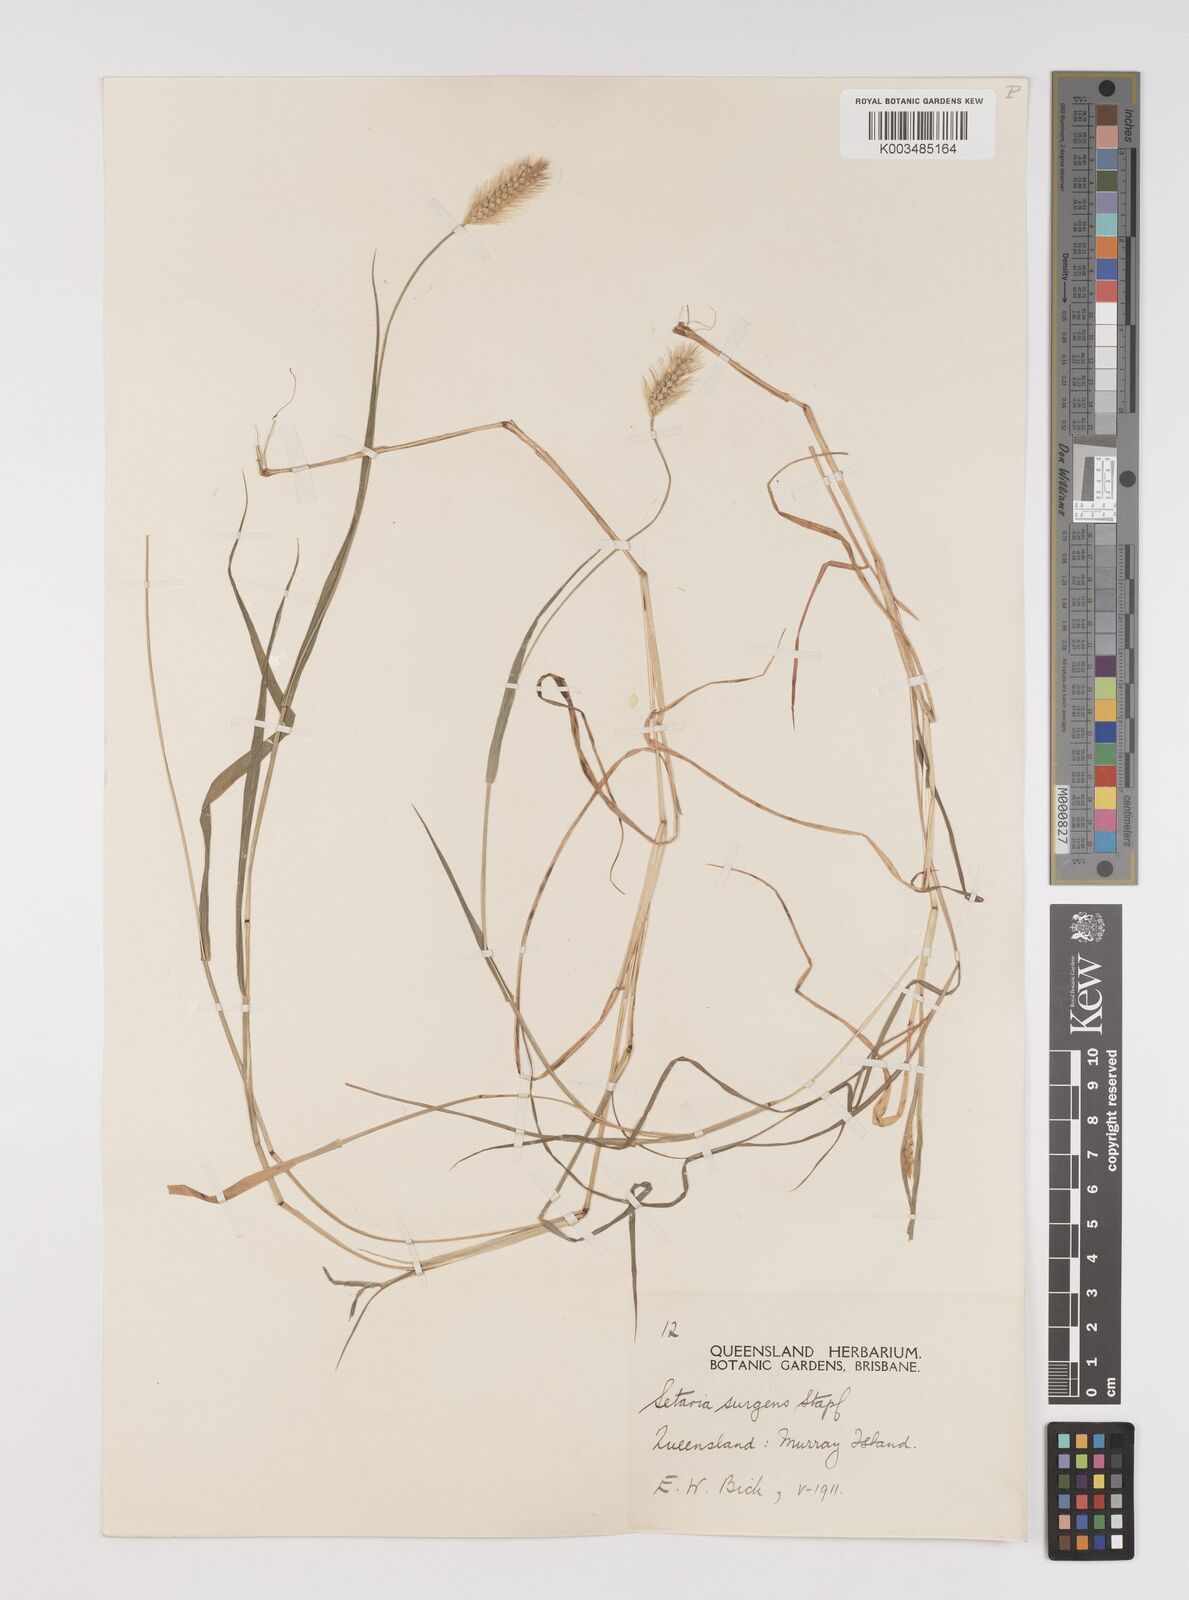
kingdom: Plantae
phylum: Tracheophyta
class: Liliopsida
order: Poales
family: Poaceae
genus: Setaria
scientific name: Setaria brownii
